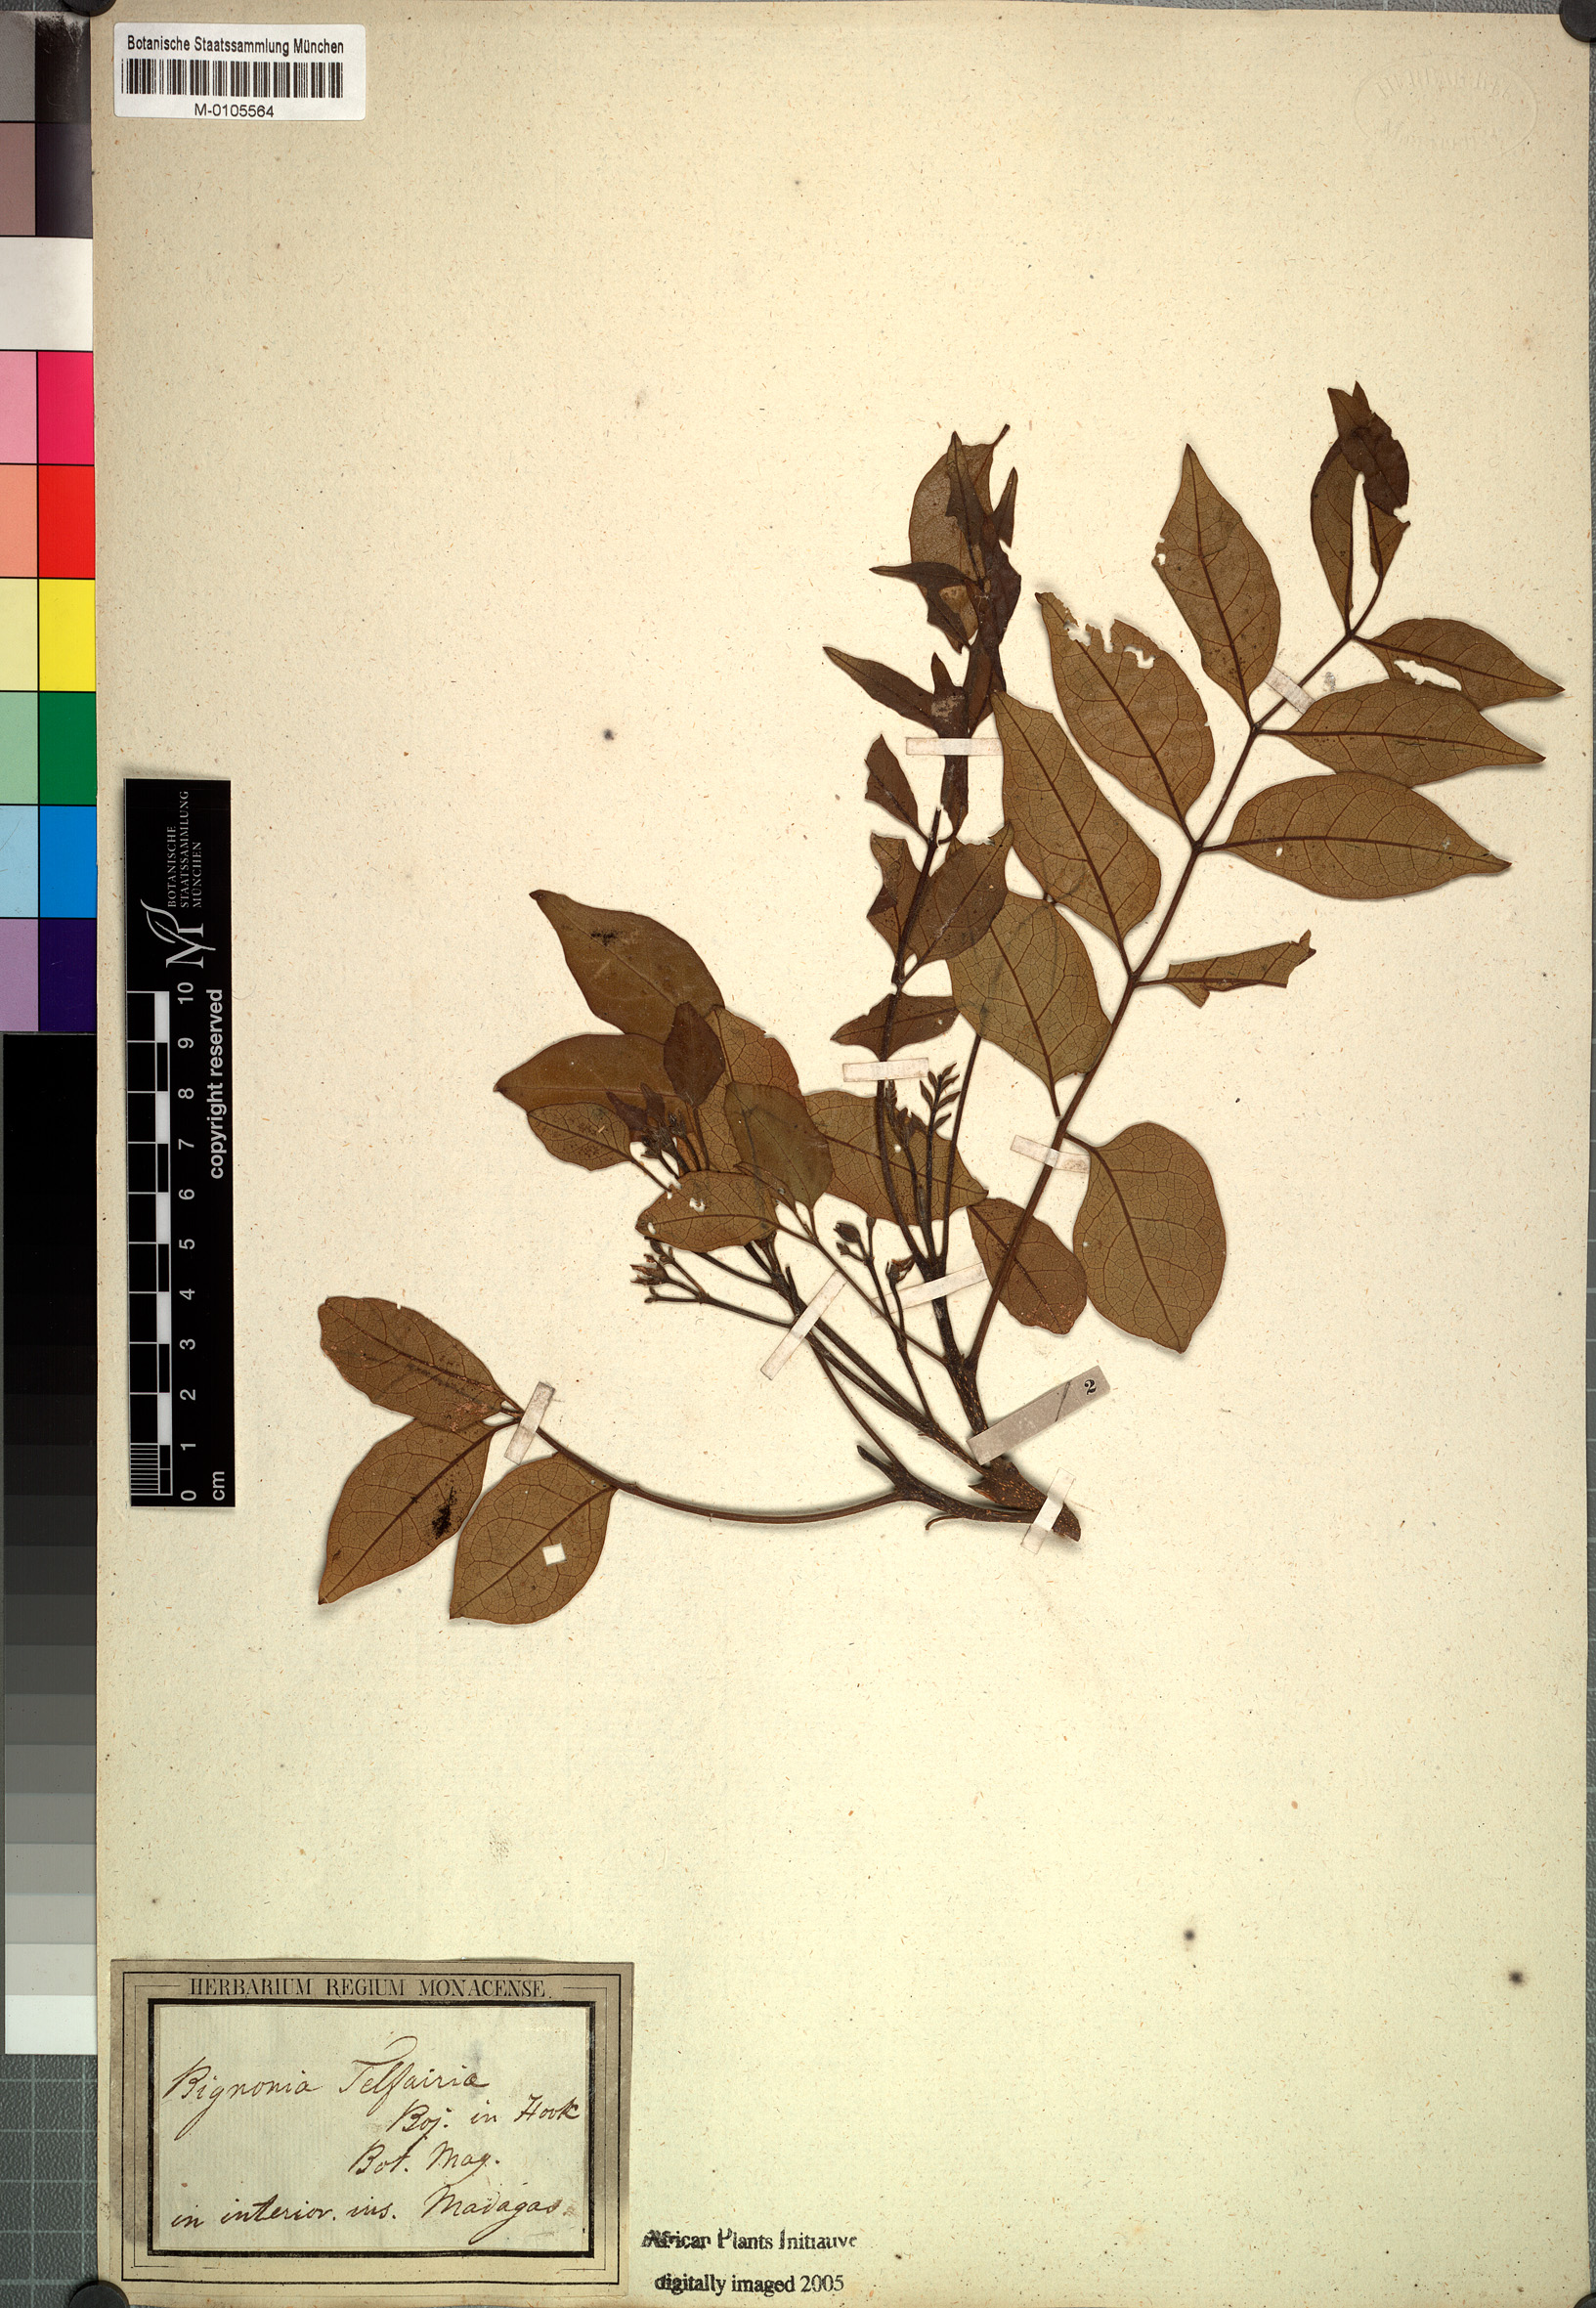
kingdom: Plantae
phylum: Tracheophyta
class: Magnoliopsida
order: Lamiales
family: Bignoniaceae
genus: Rhodocolea
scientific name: Rhodocolea telfairiae
